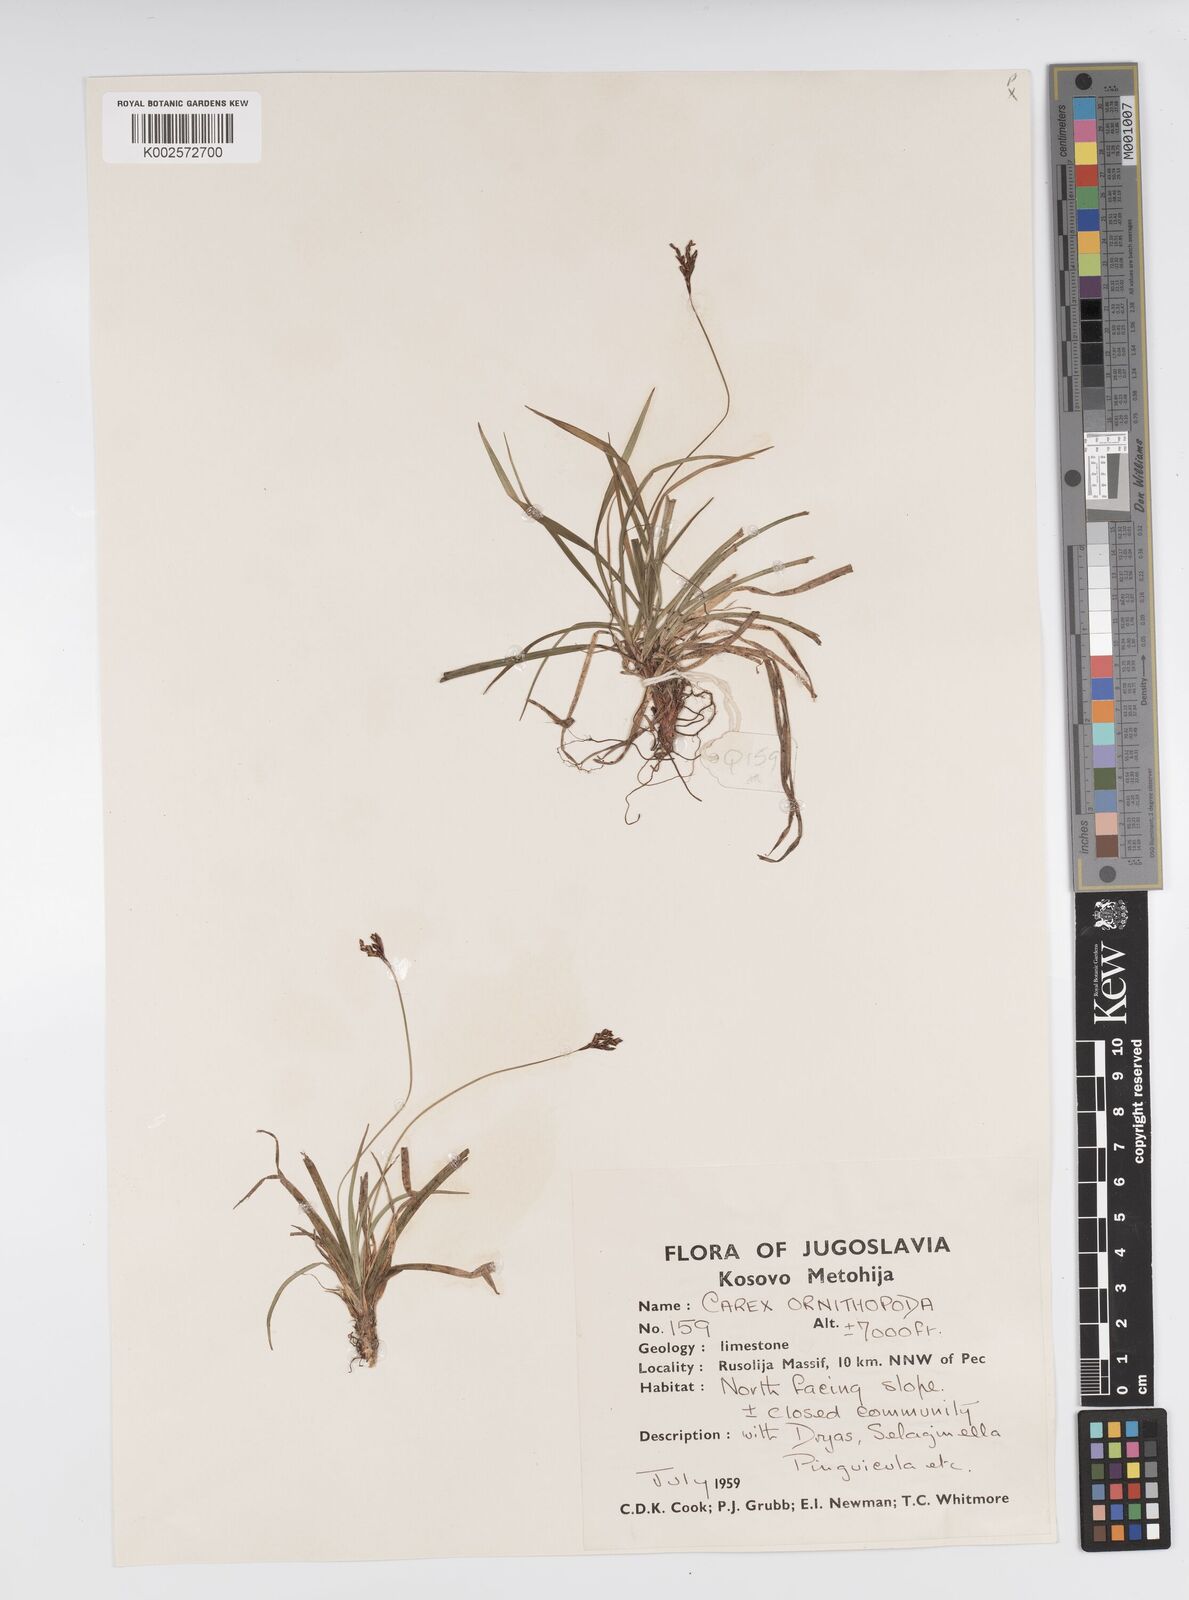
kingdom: Plantae
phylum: Tracheophyta
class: Liliopsida
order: Poales
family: Cyperaceae
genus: Carex
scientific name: Carex ornithopoda
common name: Bird's-foot sedge
